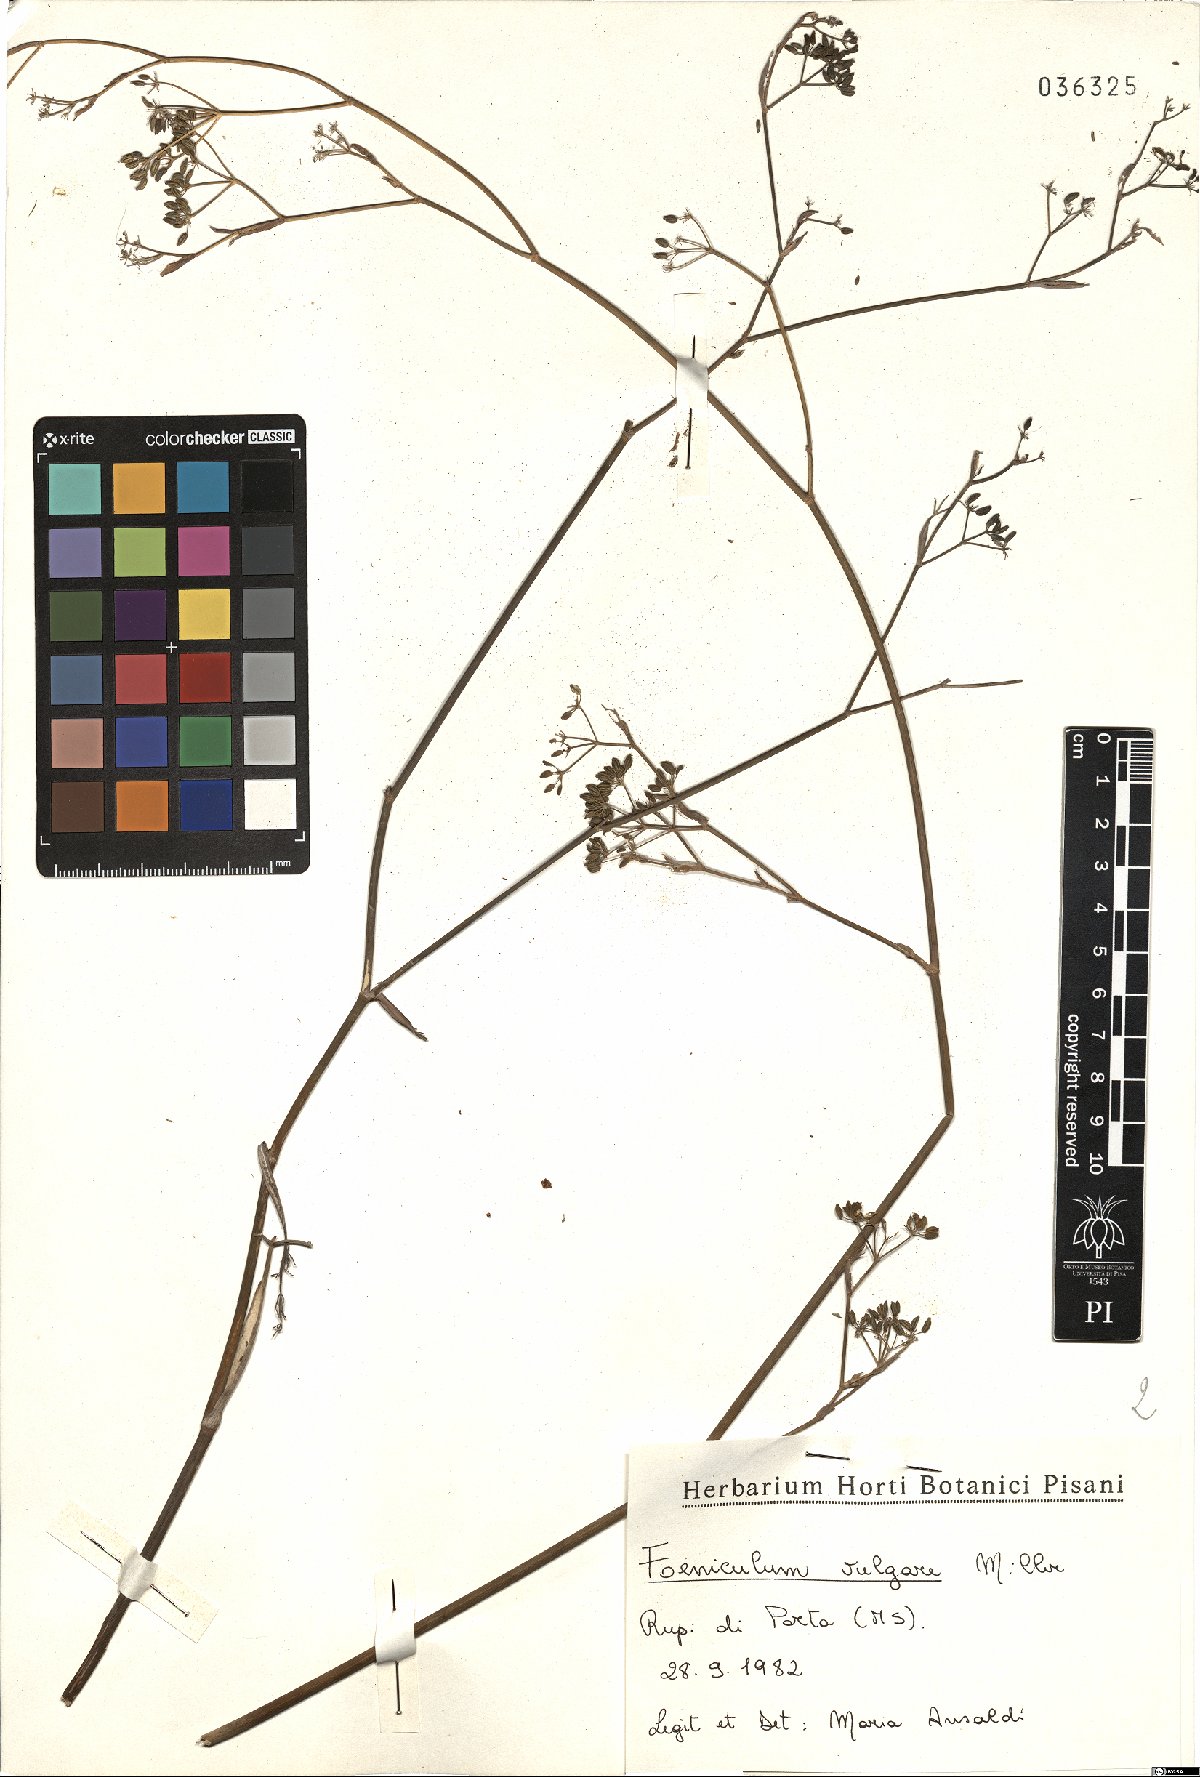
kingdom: Plantae
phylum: Tracheophyta
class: Magnoliopsida
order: Apiales
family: Apiaceae
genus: Foeniculum
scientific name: Foeniculum vulgare
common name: Fennel
